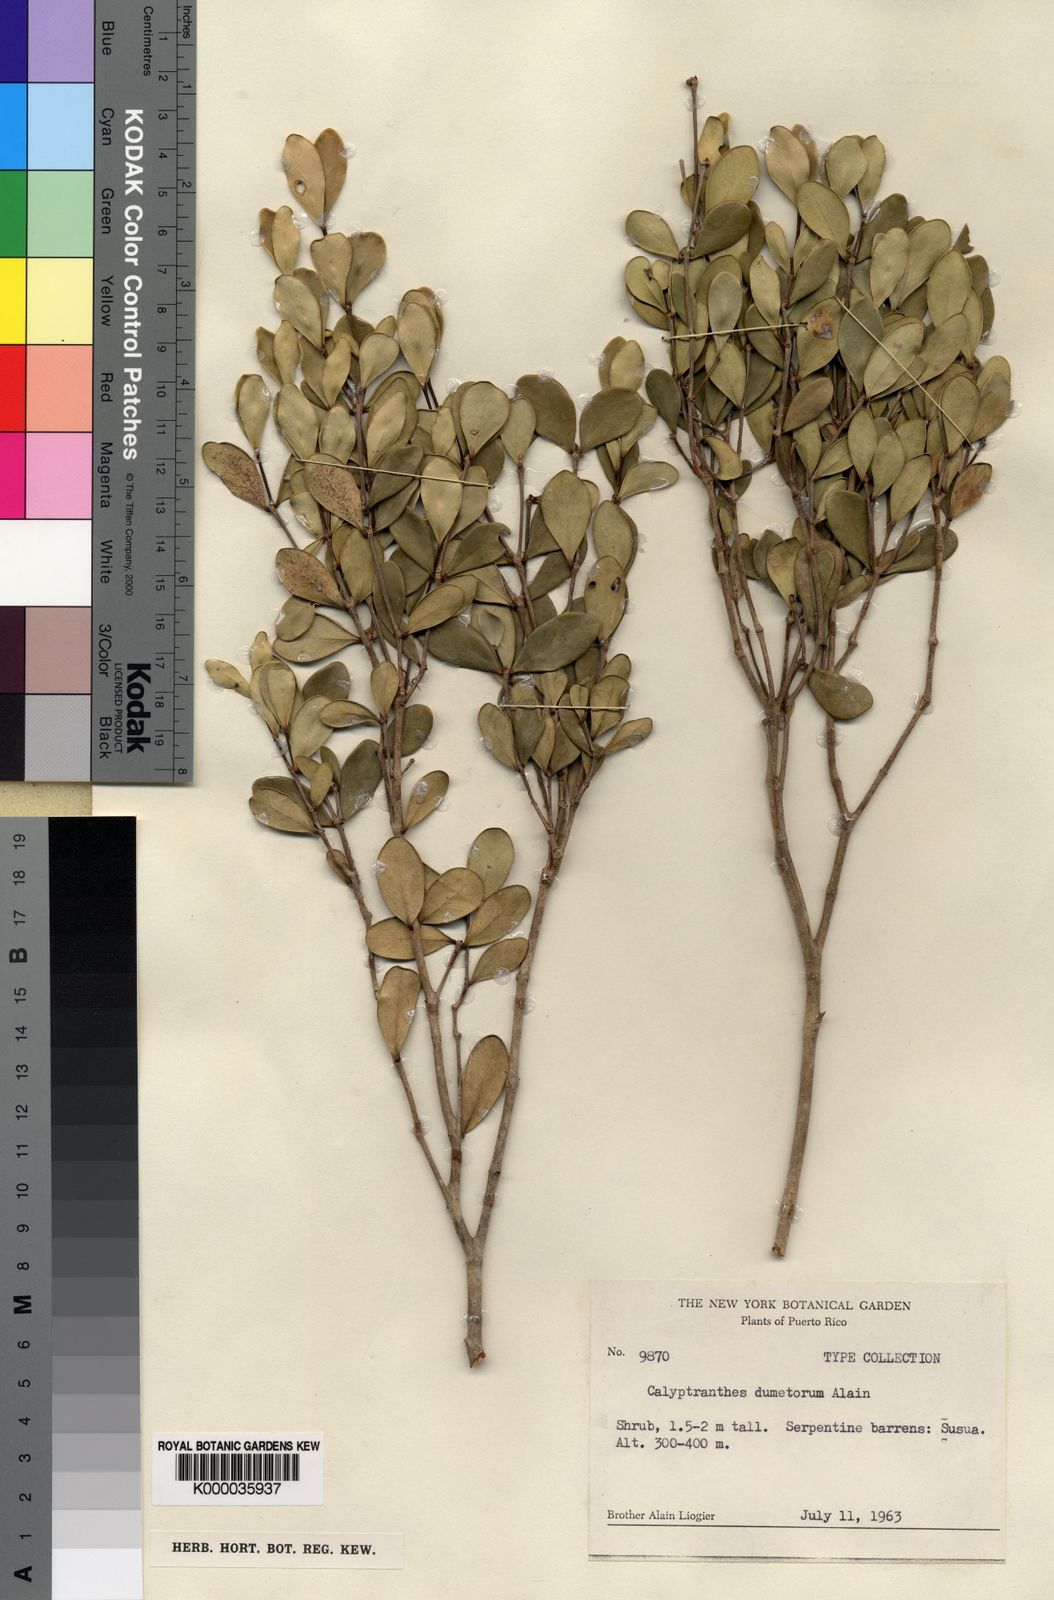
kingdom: Plantae
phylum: Tracheophyta
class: Magnoliopsida
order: Myrtales
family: Myrtaceae
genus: Myrcia
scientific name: Myrcia peduncularis
